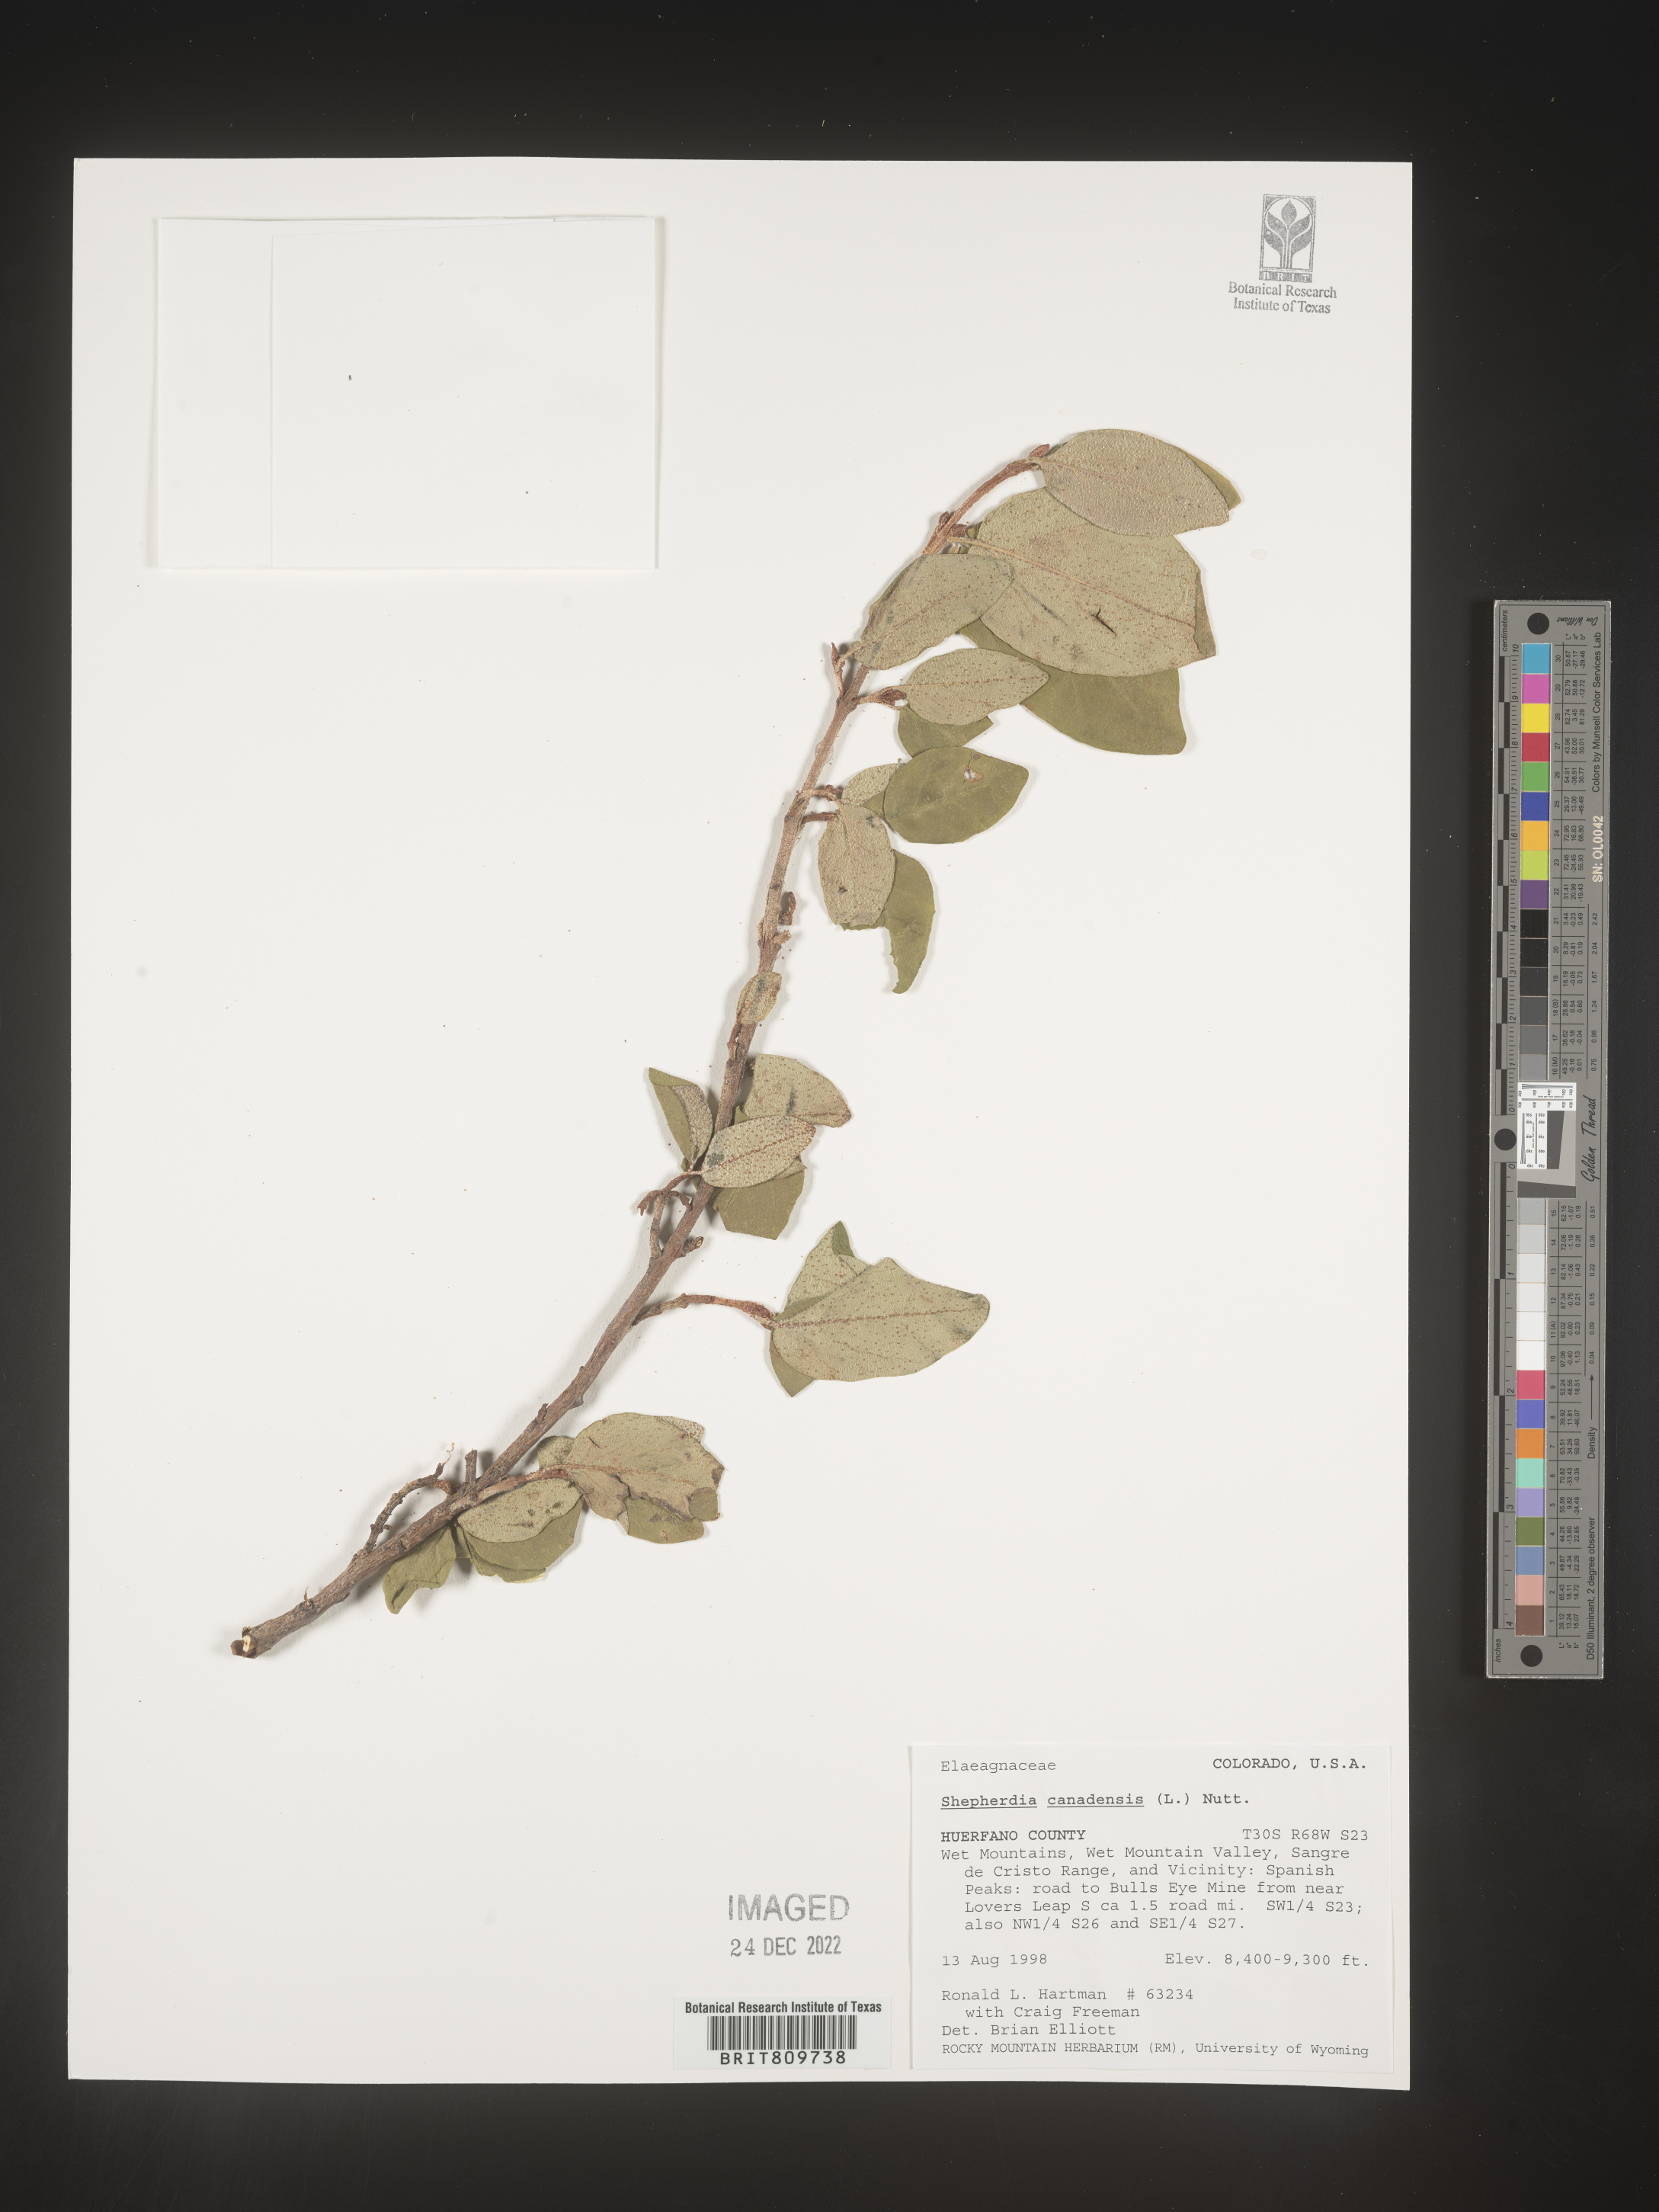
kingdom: Plantae
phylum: Tracheophyta
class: Magnoliopsida
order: Rosales
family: Elaeagnaceae
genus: Shepherdia
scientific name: Shepherdia canadensis
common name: Soapberry
